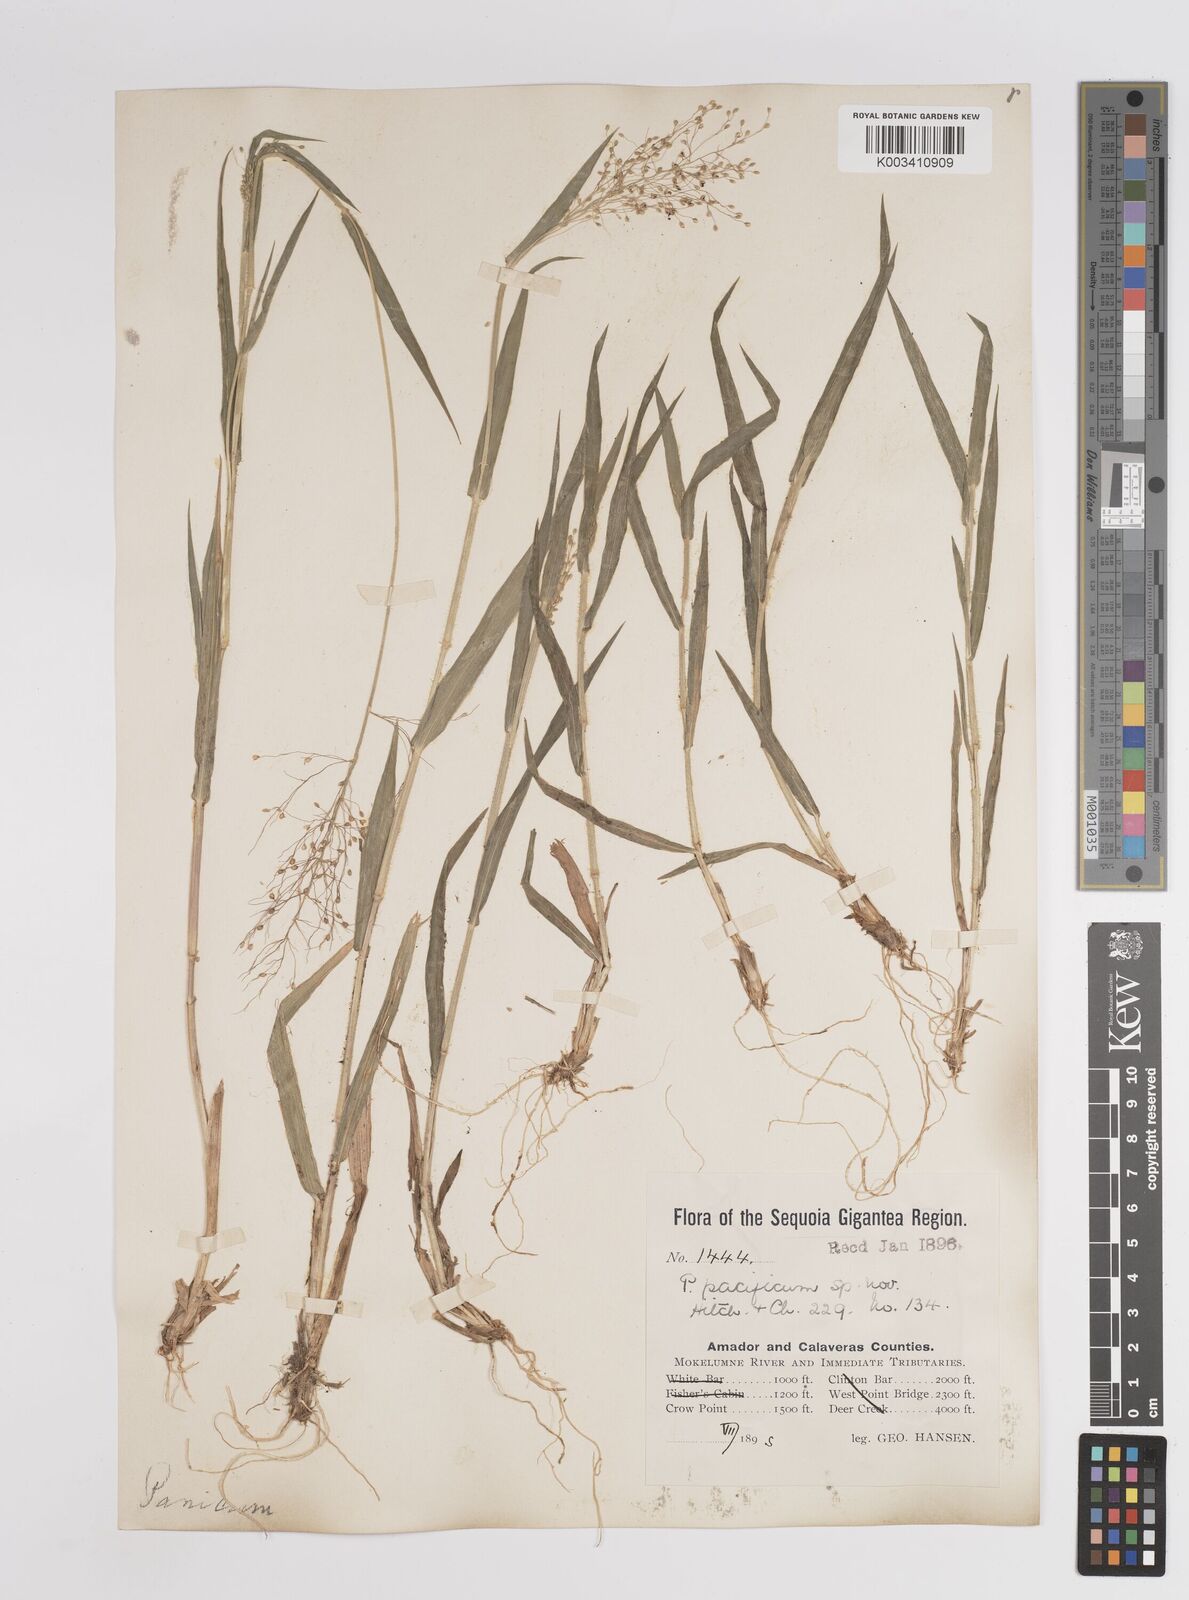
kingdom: Plantae
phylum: Tracheophyta
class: Liliopsida
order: Poales
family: Poaceae
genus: Dichanthelium
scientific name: Dichanthelium implicatum
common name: Slender-stemmed panicgrass
